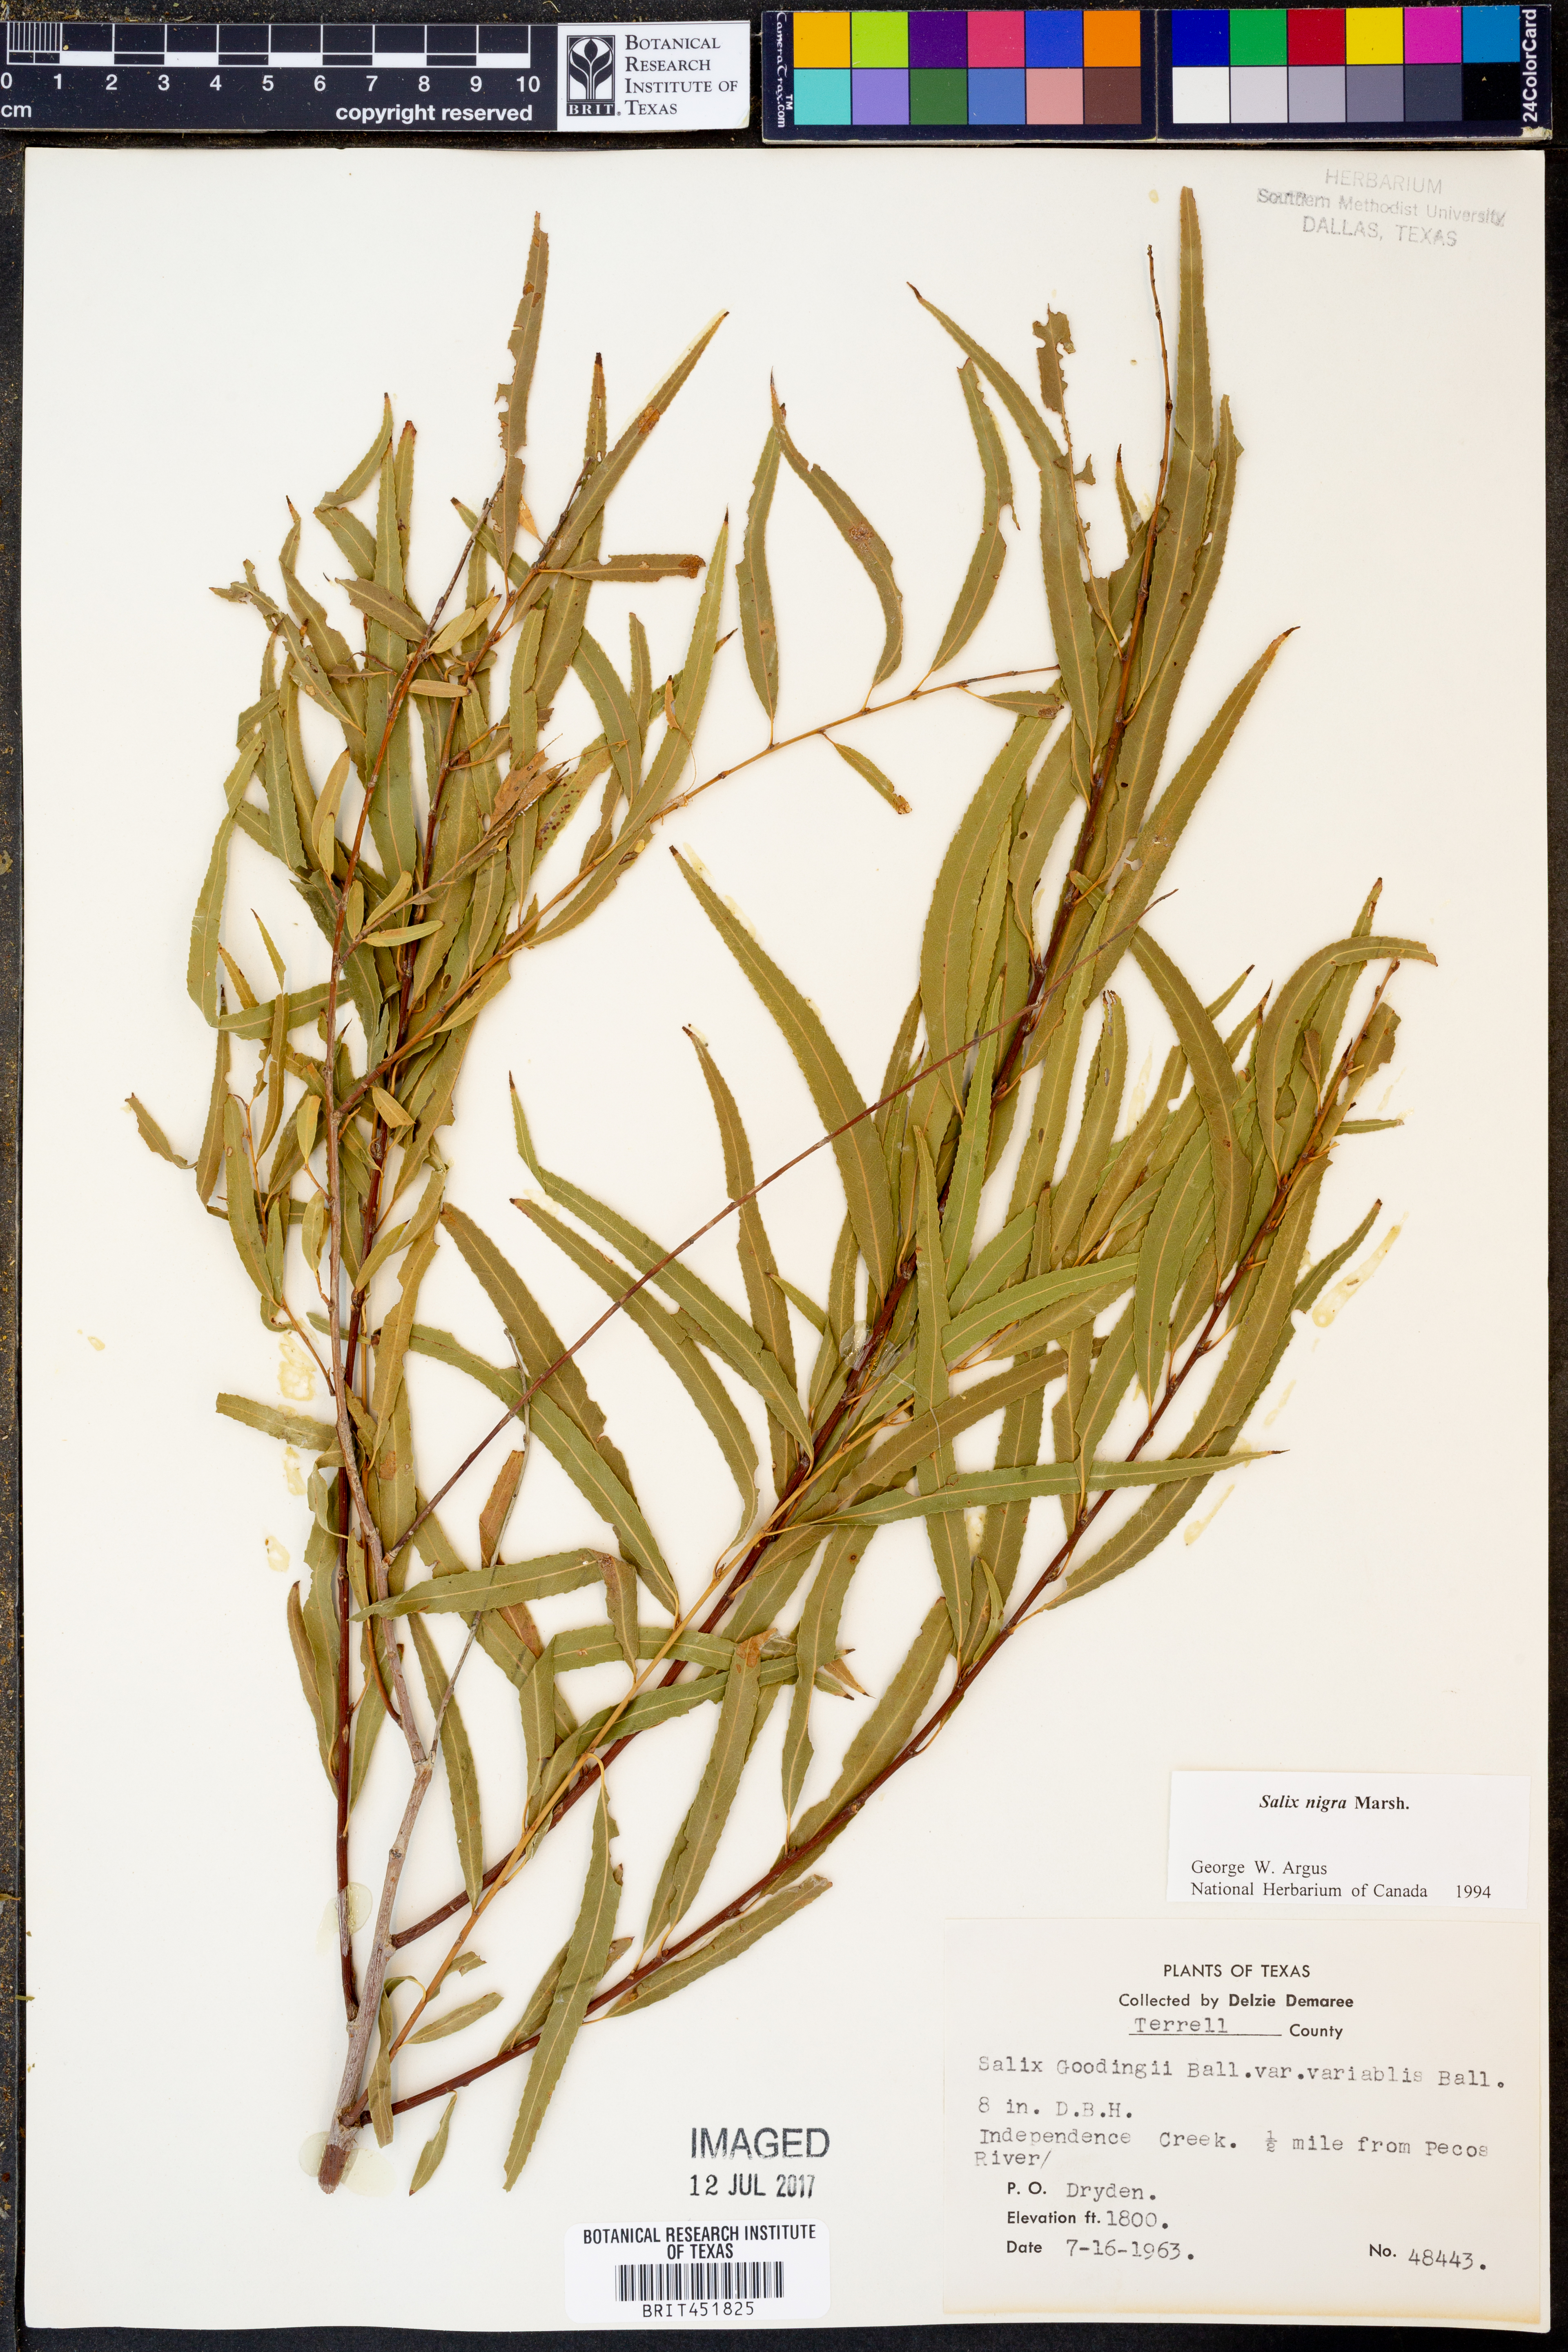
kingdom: Plantae
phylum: Tracheophyta
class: Magnoliopsida
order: Malpighiales
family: Salicaceae
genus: Salix
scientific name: Salix nigra
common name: Black willow
